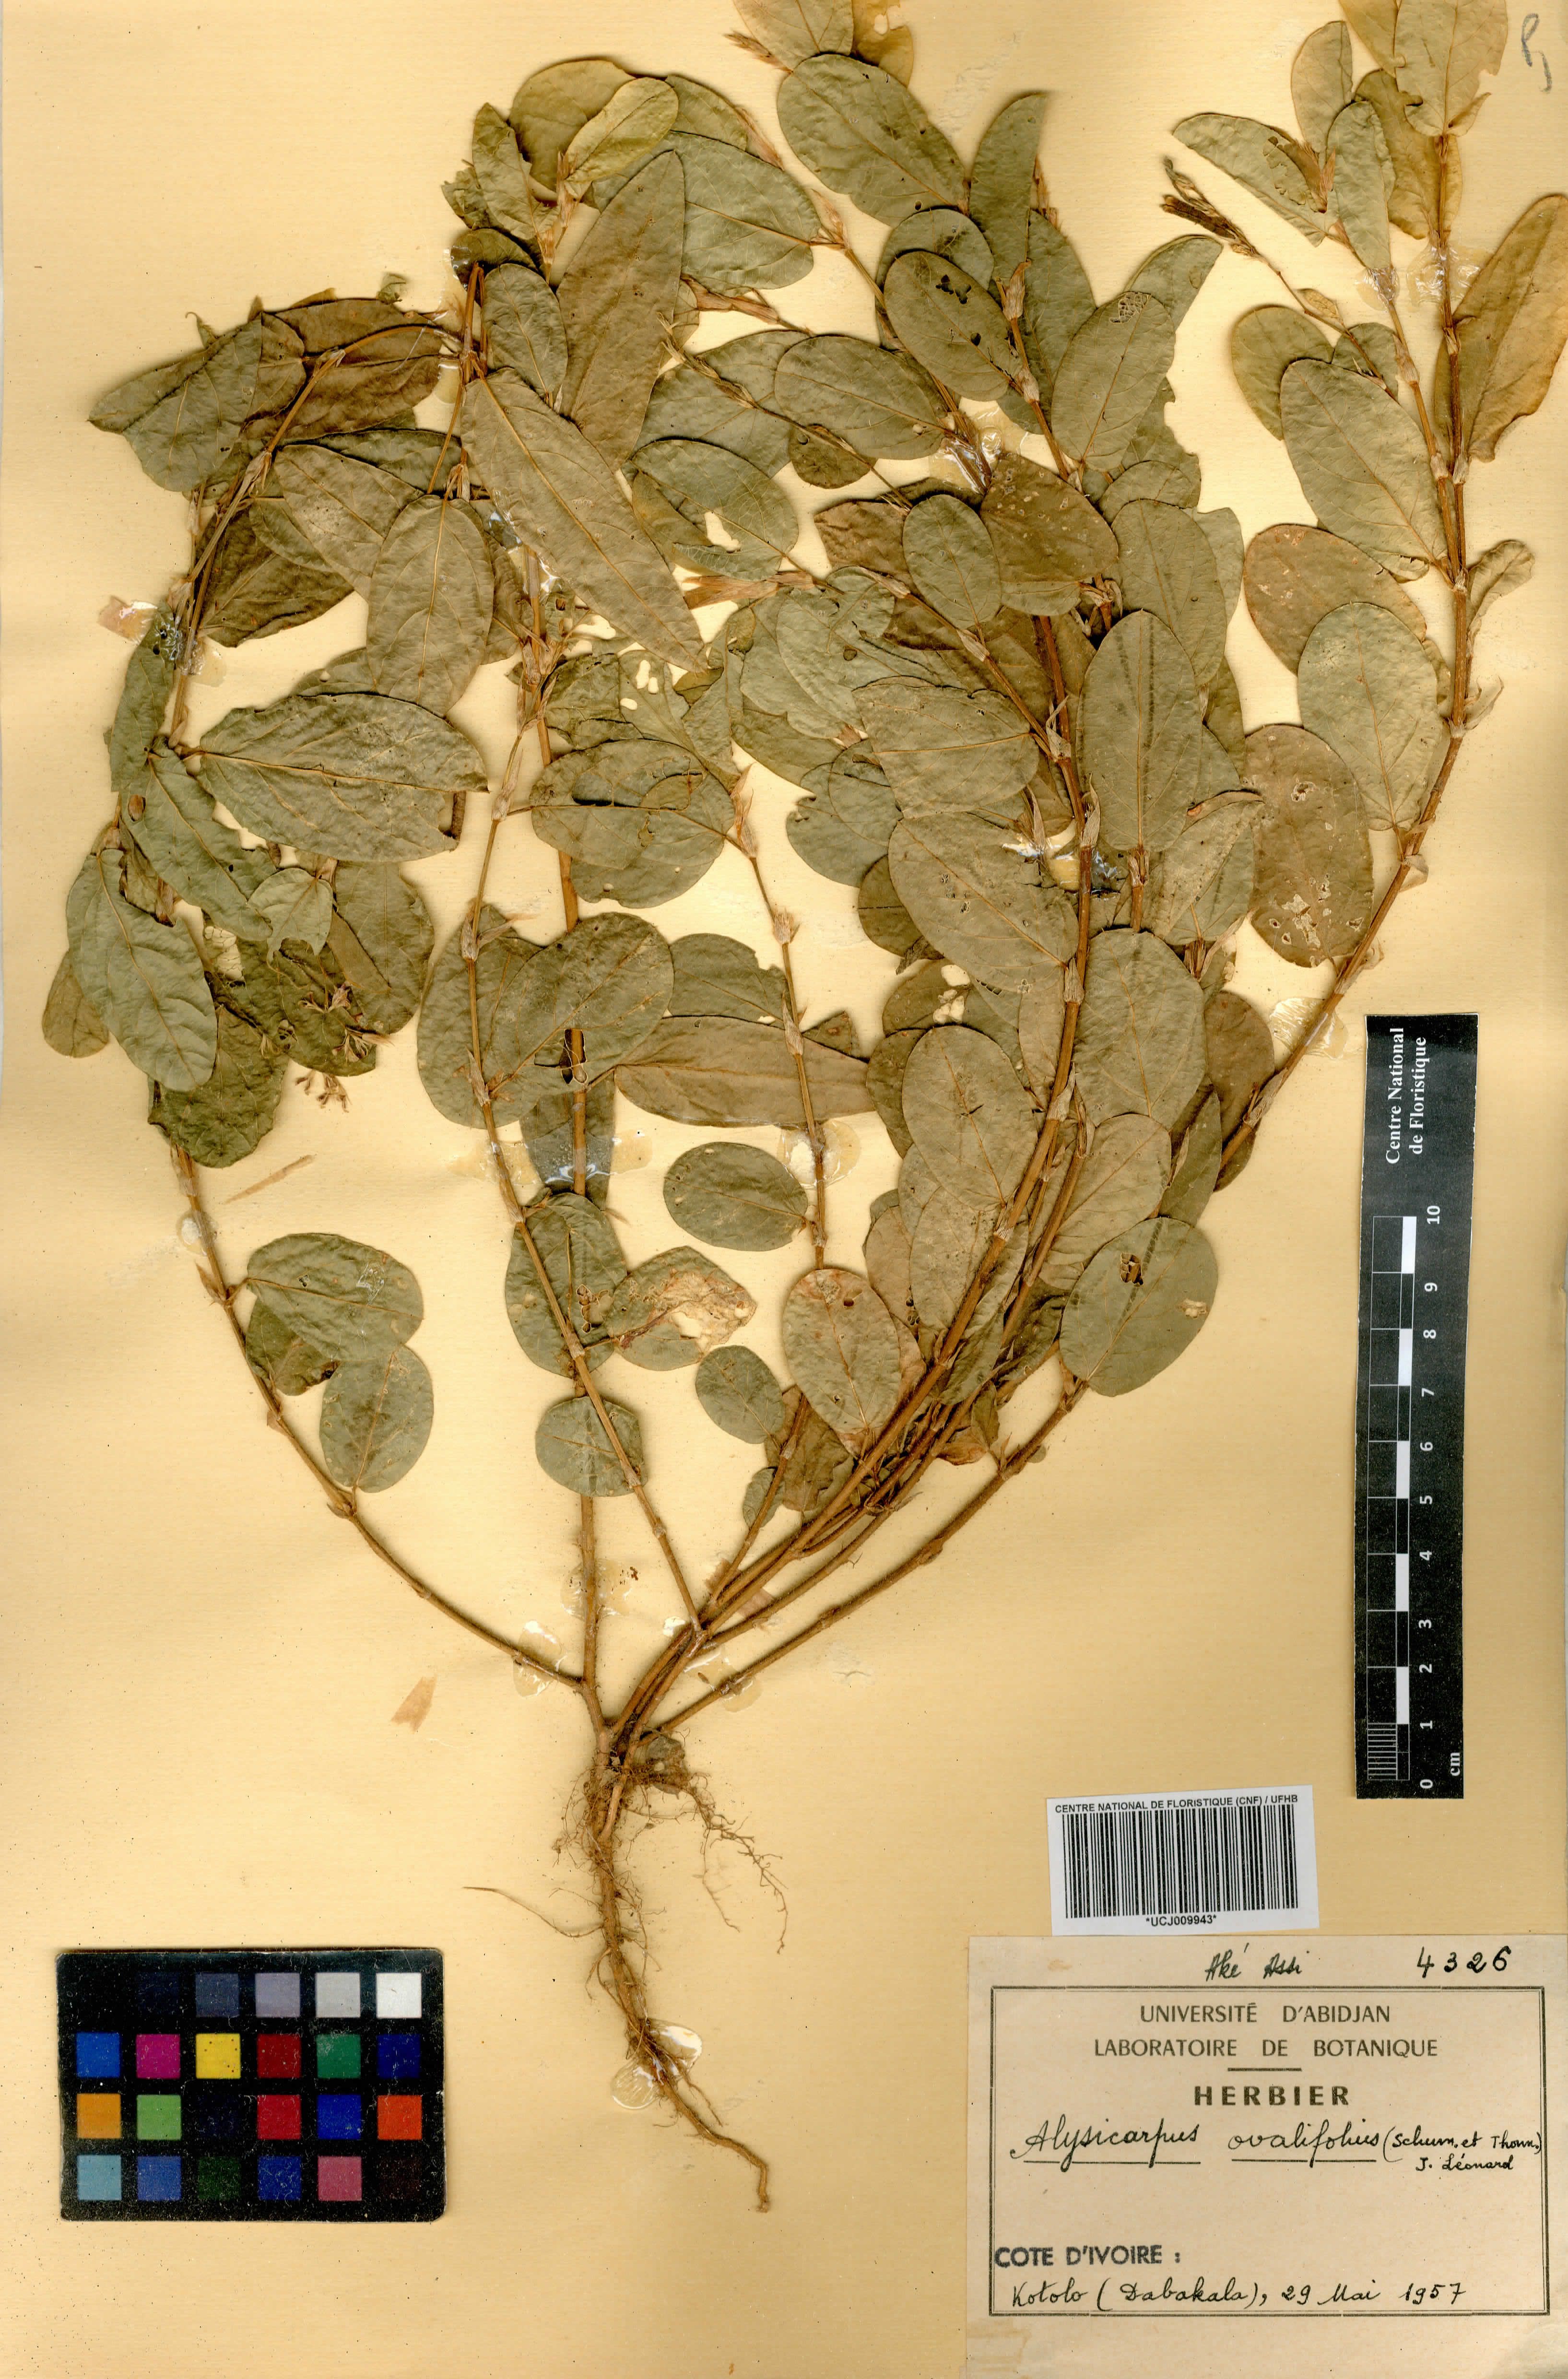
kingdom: Plantae
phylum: Tracheophyta
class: Magnoliopsida
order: Fabales
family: Fabaceae
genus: Alysicarpus
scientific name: Alysicarpus ovalifolius
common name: Alyce clover
